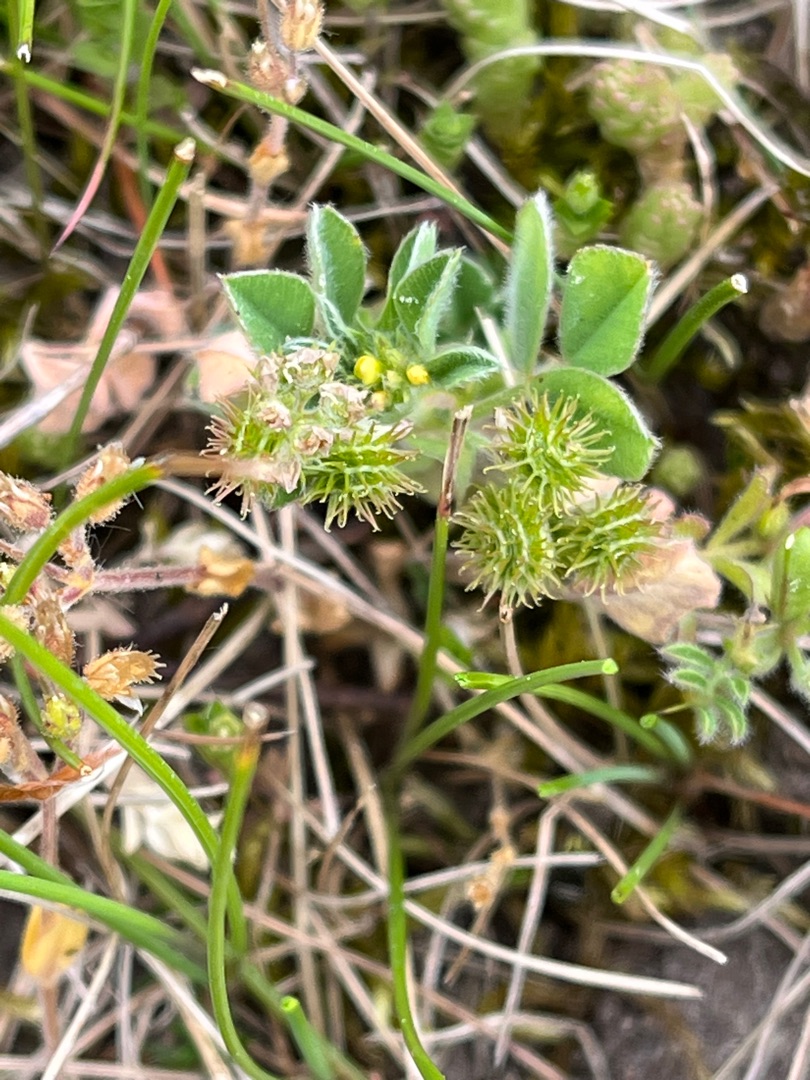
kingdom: Plantae
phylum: Tracheophyta
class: Magnoliopsida
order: Fabales
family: Fabaceae
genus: Medicago
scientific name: Medicago minima
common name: Liden sneglebælg
